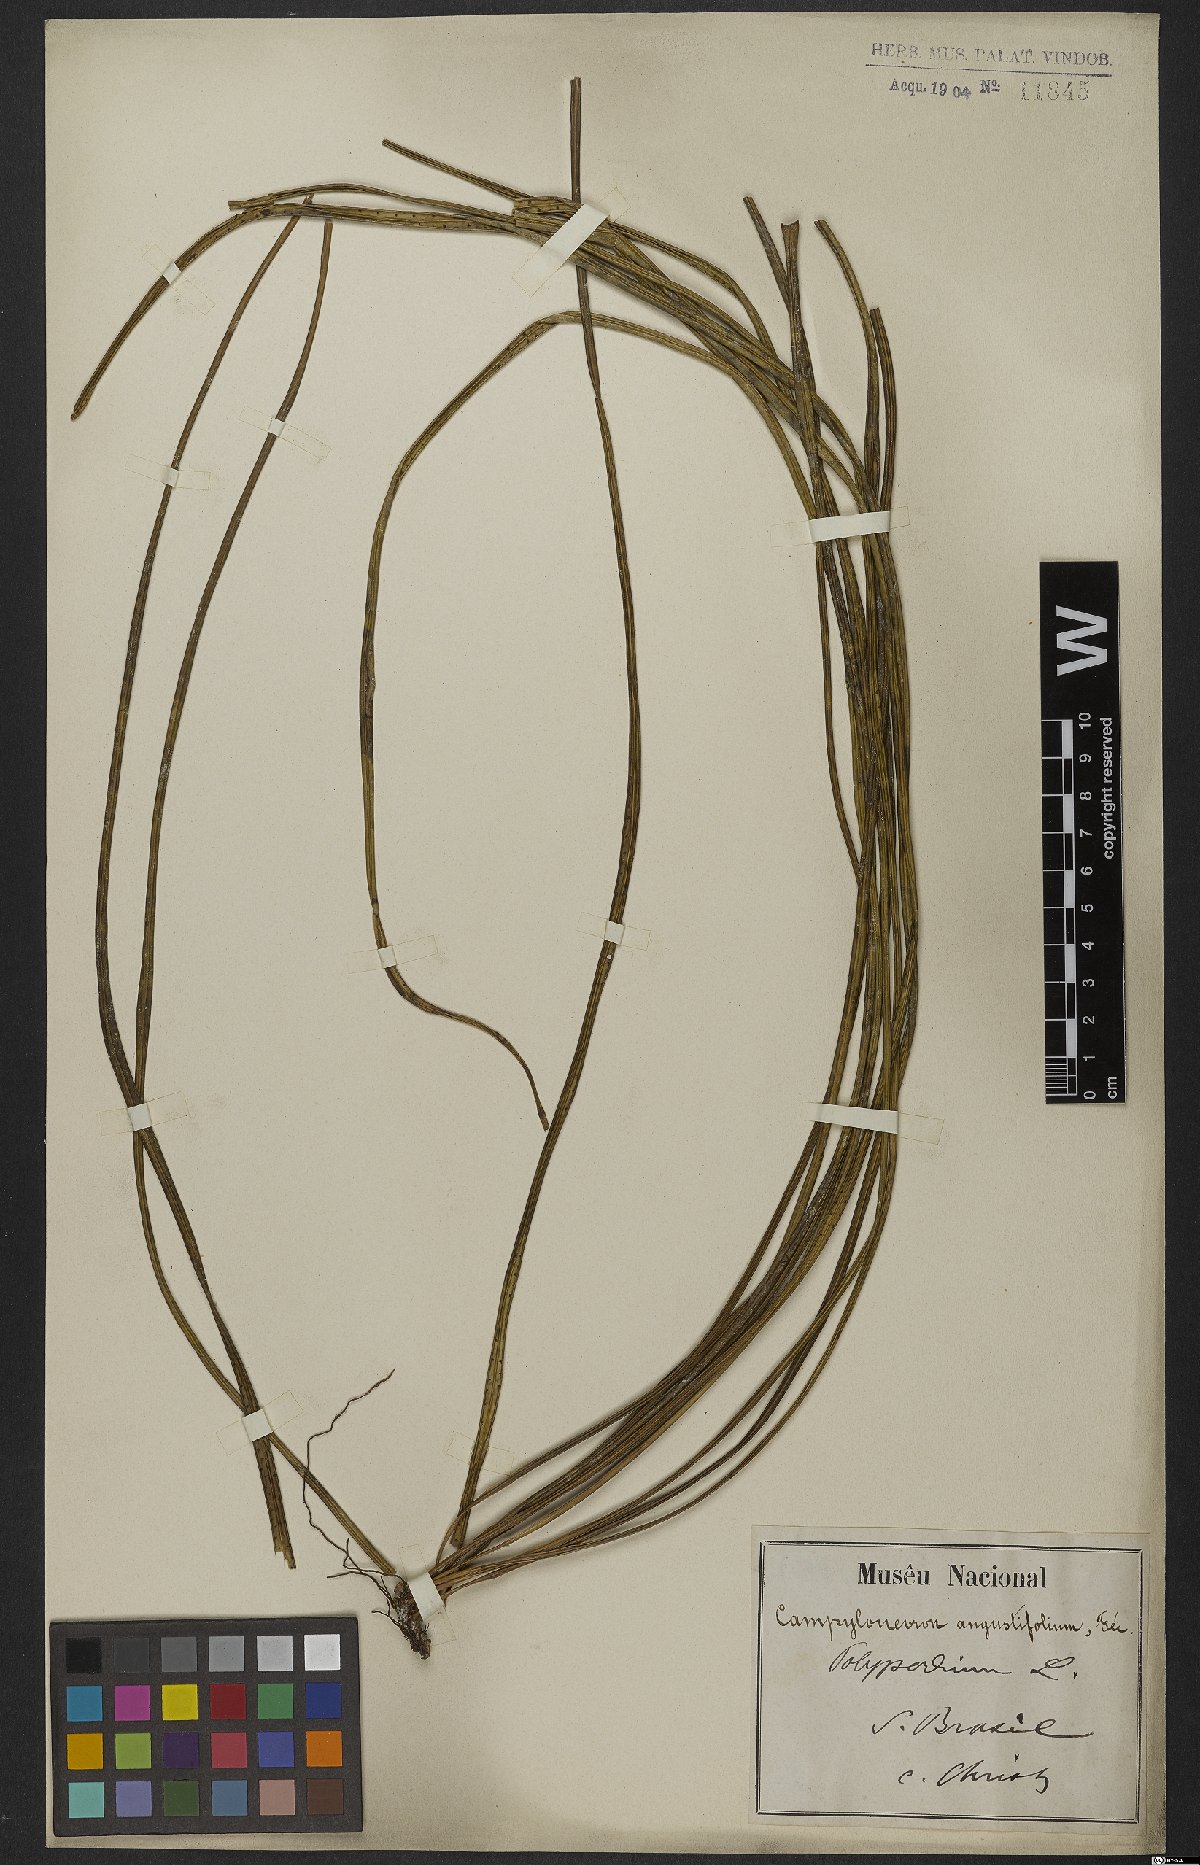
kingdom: Plantae
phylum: Tracheophyta
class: Polypodiopsida
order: Polypodiales
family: Polypodiaceae
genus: Campyloneurum
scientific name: Campyloneurum angustifolium
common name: Narrow-leaf strap fern
